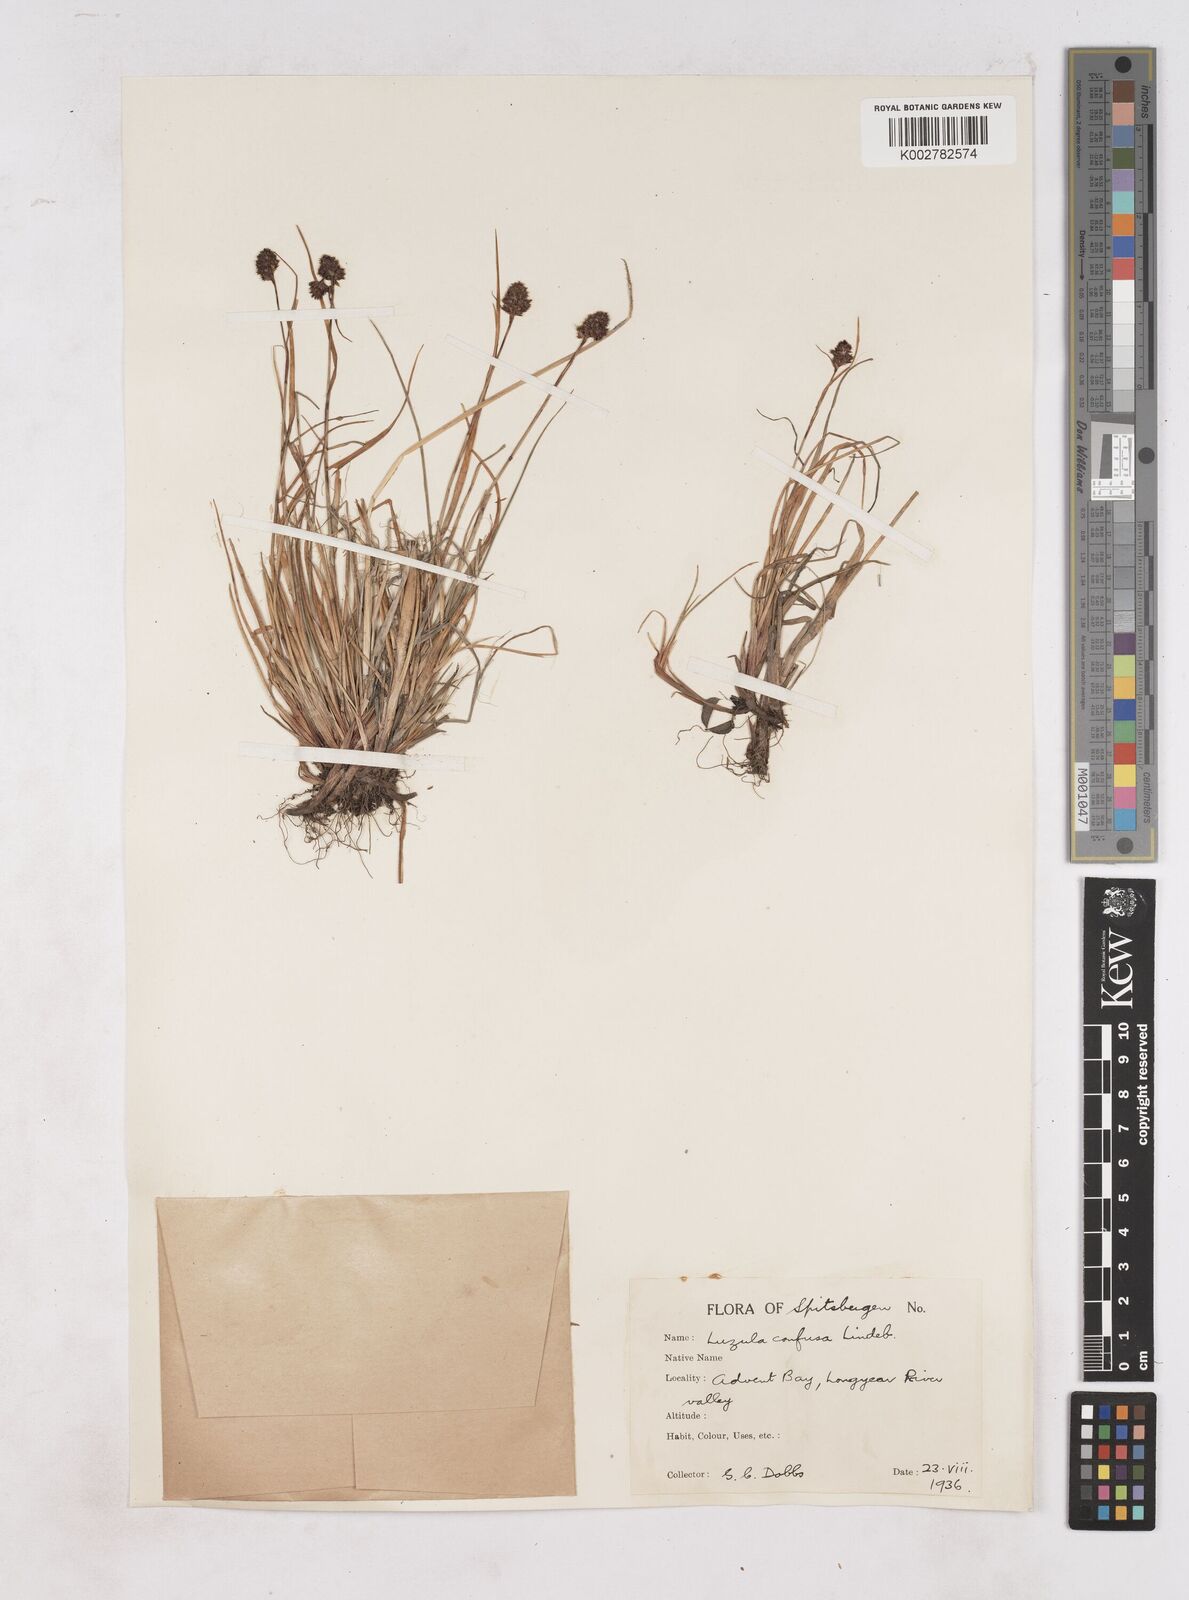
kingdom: Plantae
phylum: Tracheophyta
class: Liliopsida
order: Poales
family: Juncaceae
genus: Luzula
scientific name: Luzula confusa
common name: Northern wood rush
